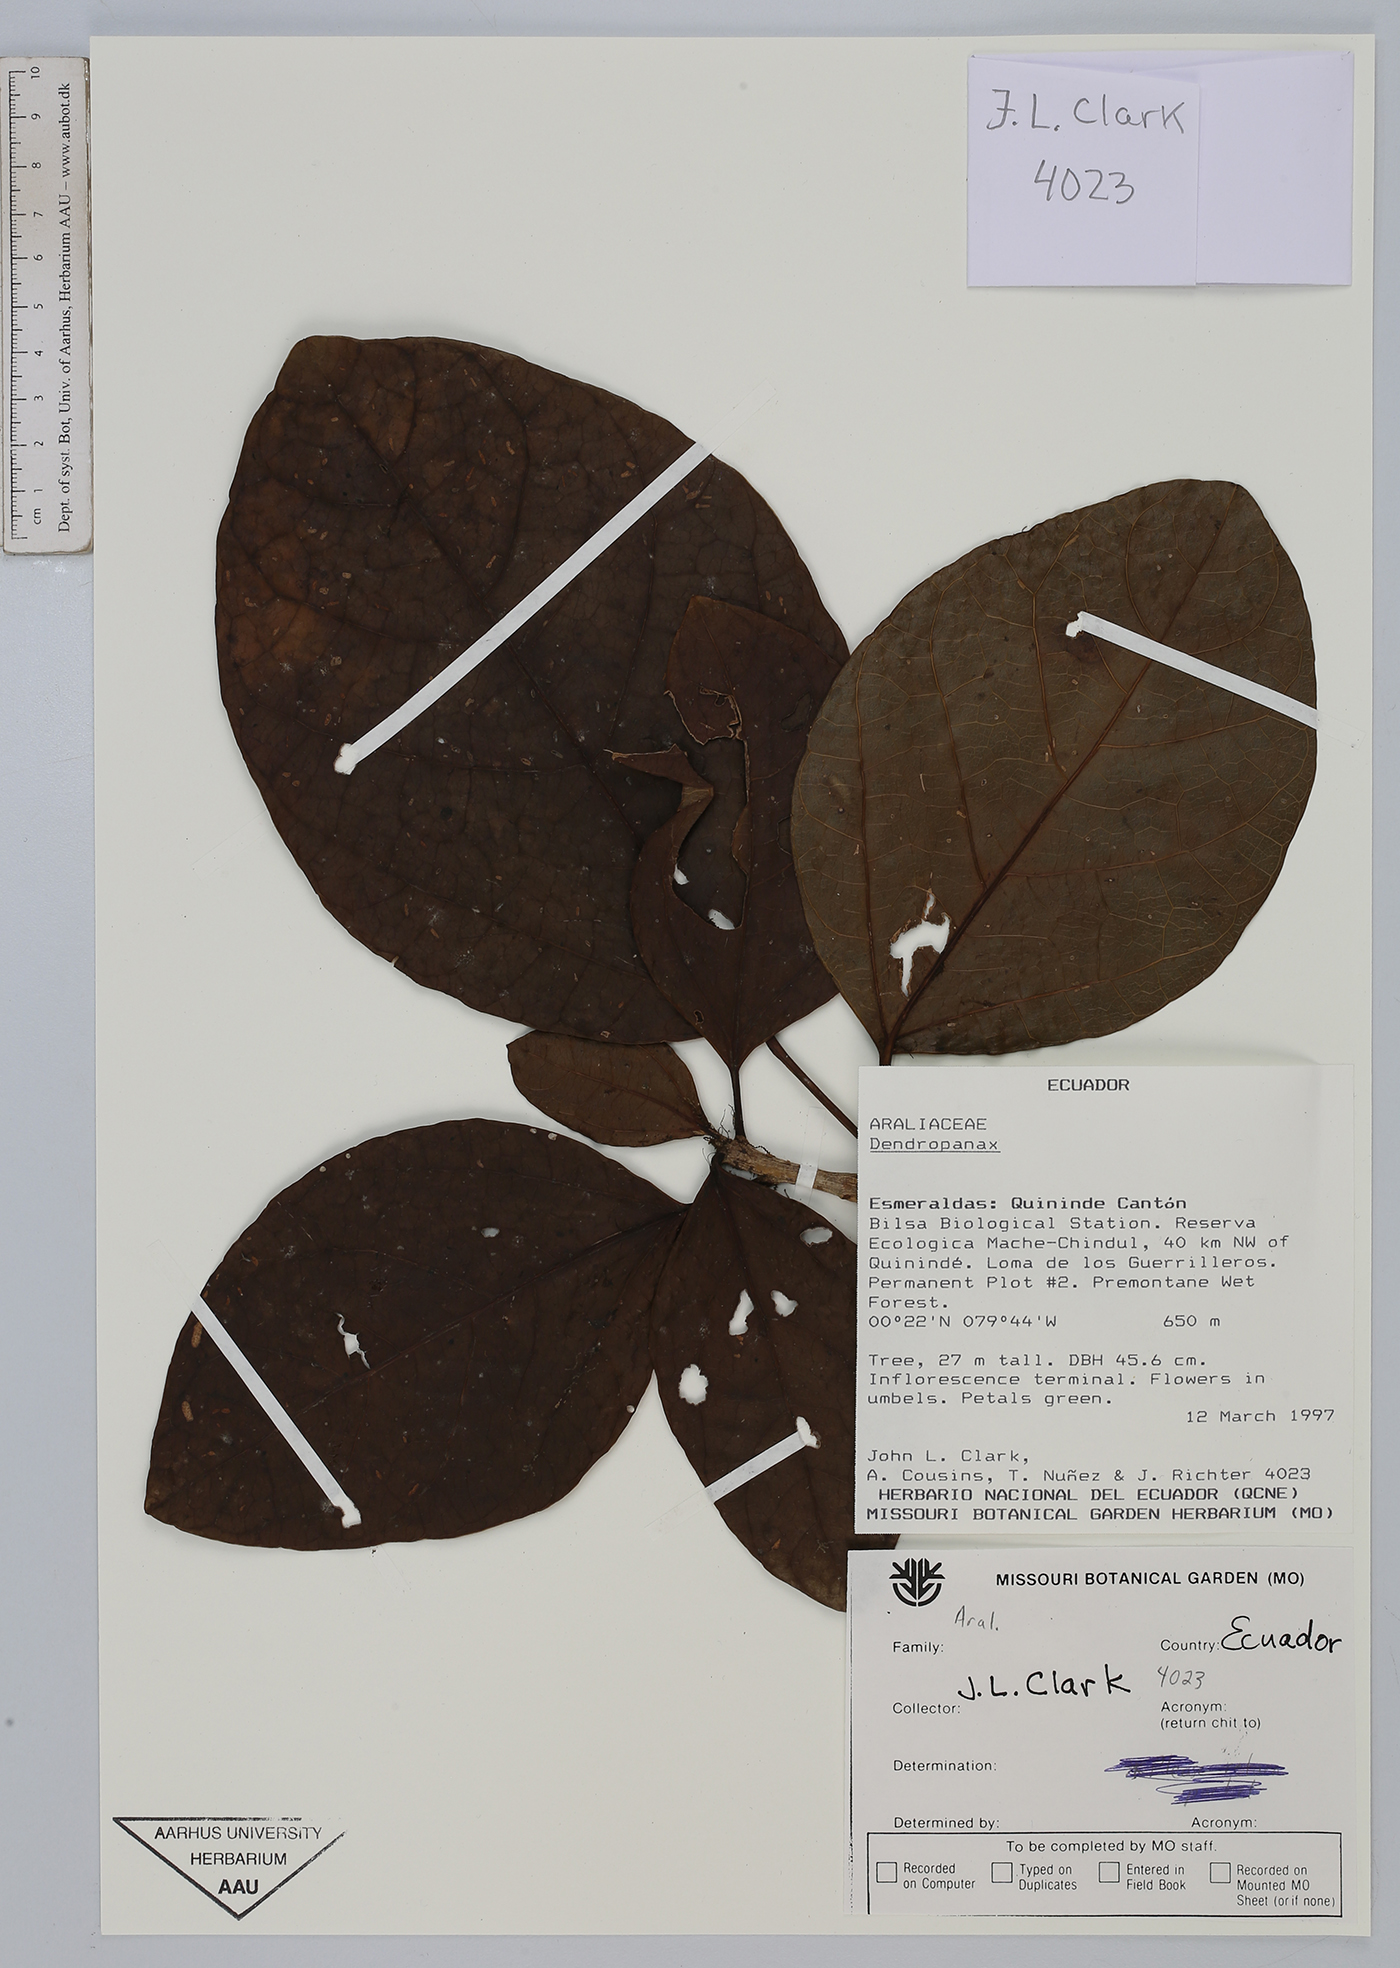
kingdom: Plantae
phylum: Tracheophyta
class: Magnoliopsida
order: Apiales
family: Araliaceae
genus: Dendropanax
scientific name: Dendropanax
